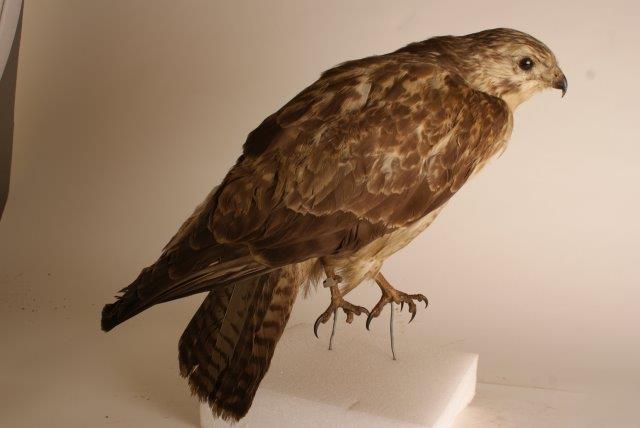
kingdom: Animalia
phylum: Chordata
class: Aves
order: Accipitriformes
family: Accipitridae
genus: Buteo
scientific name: Buteo buteo
